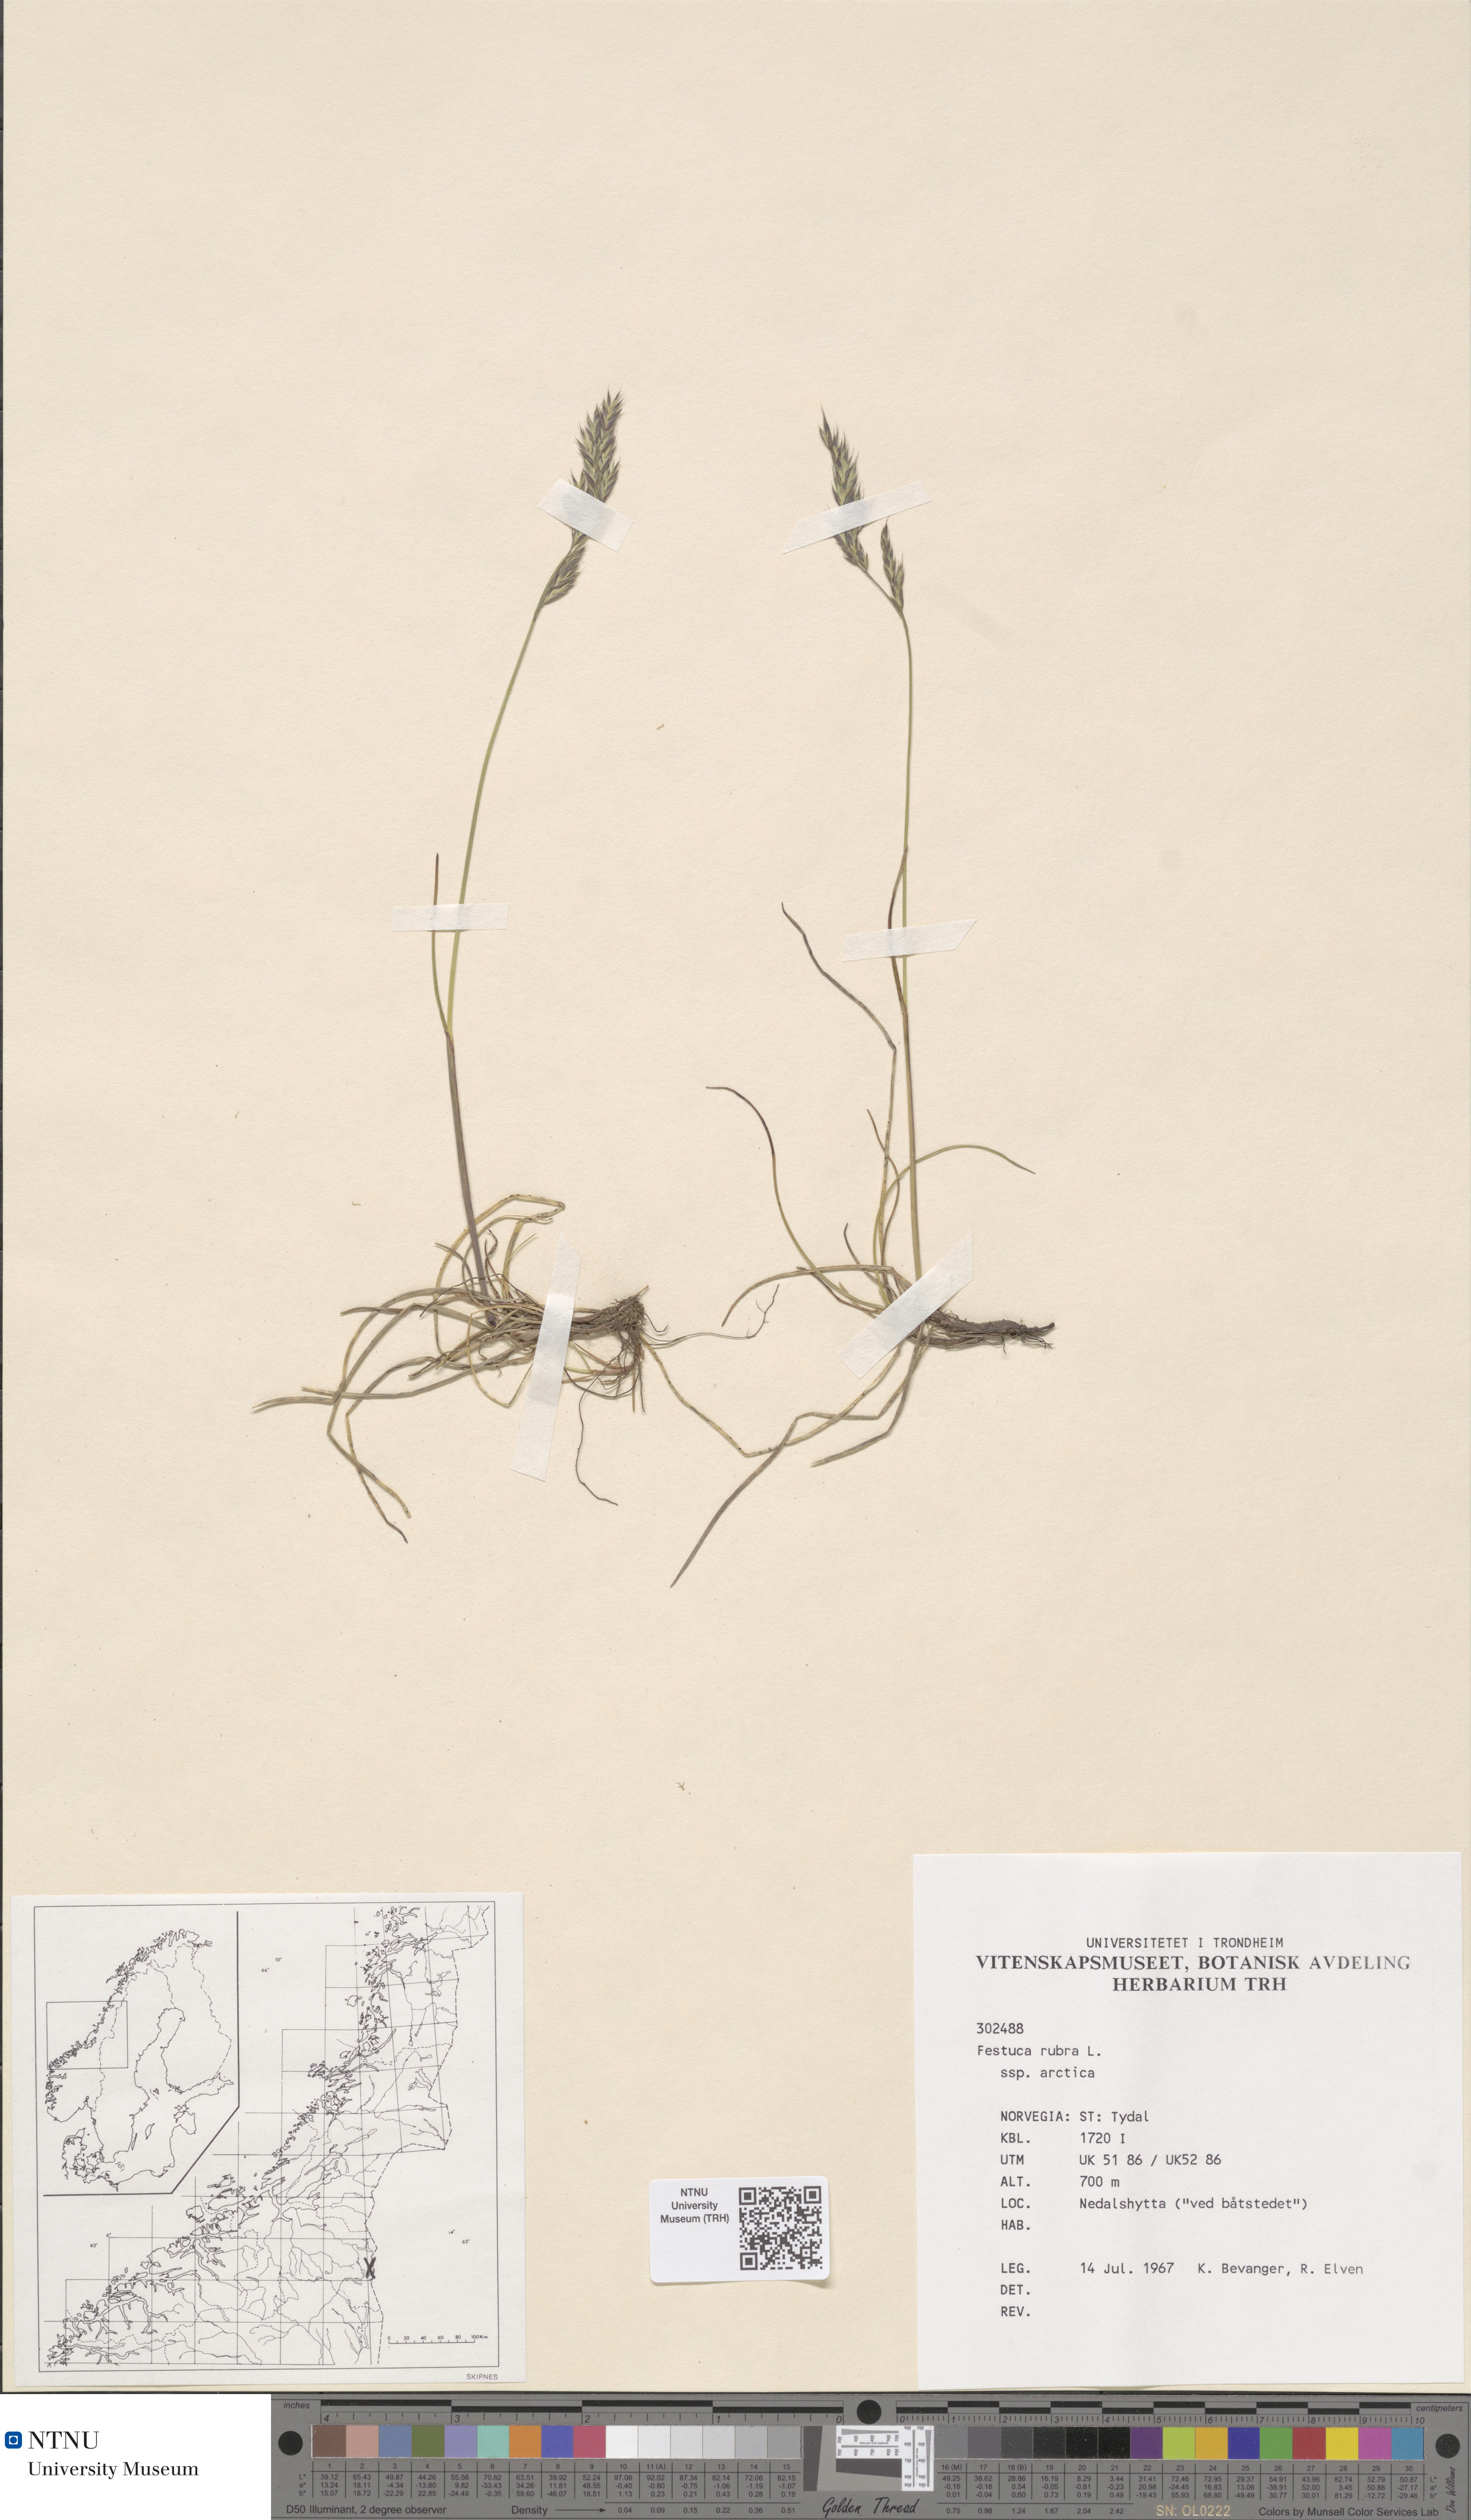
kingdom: Plantae
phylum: Tracheophyta
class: Liliopsida
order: Poales
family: Poaceae
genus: Festuca
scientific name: Festuca richardsonii
